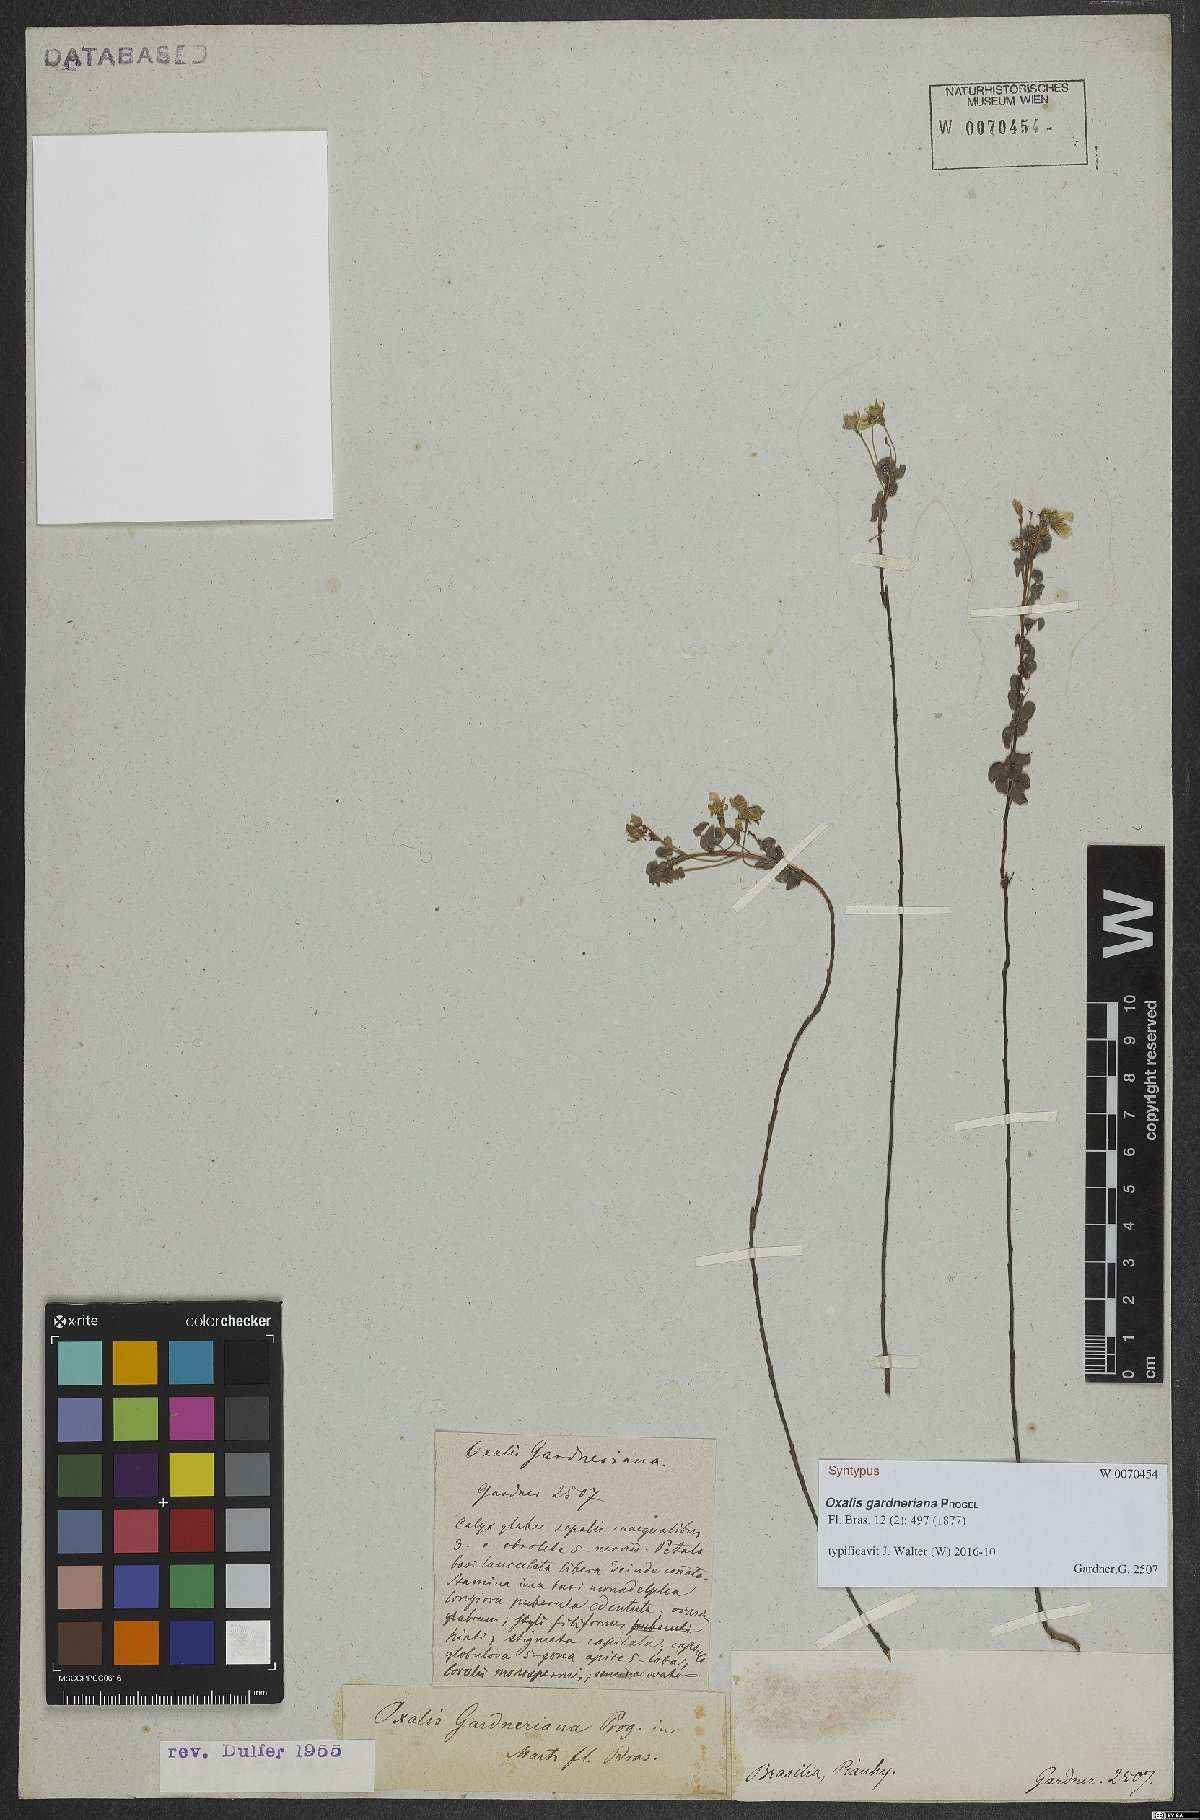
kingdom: Plantae
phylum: Tracheophyta
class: Magnoliopsida
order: Oxalidales
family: Oxalidaceae
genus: Oxalis
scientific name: Oxalis gardneriana
